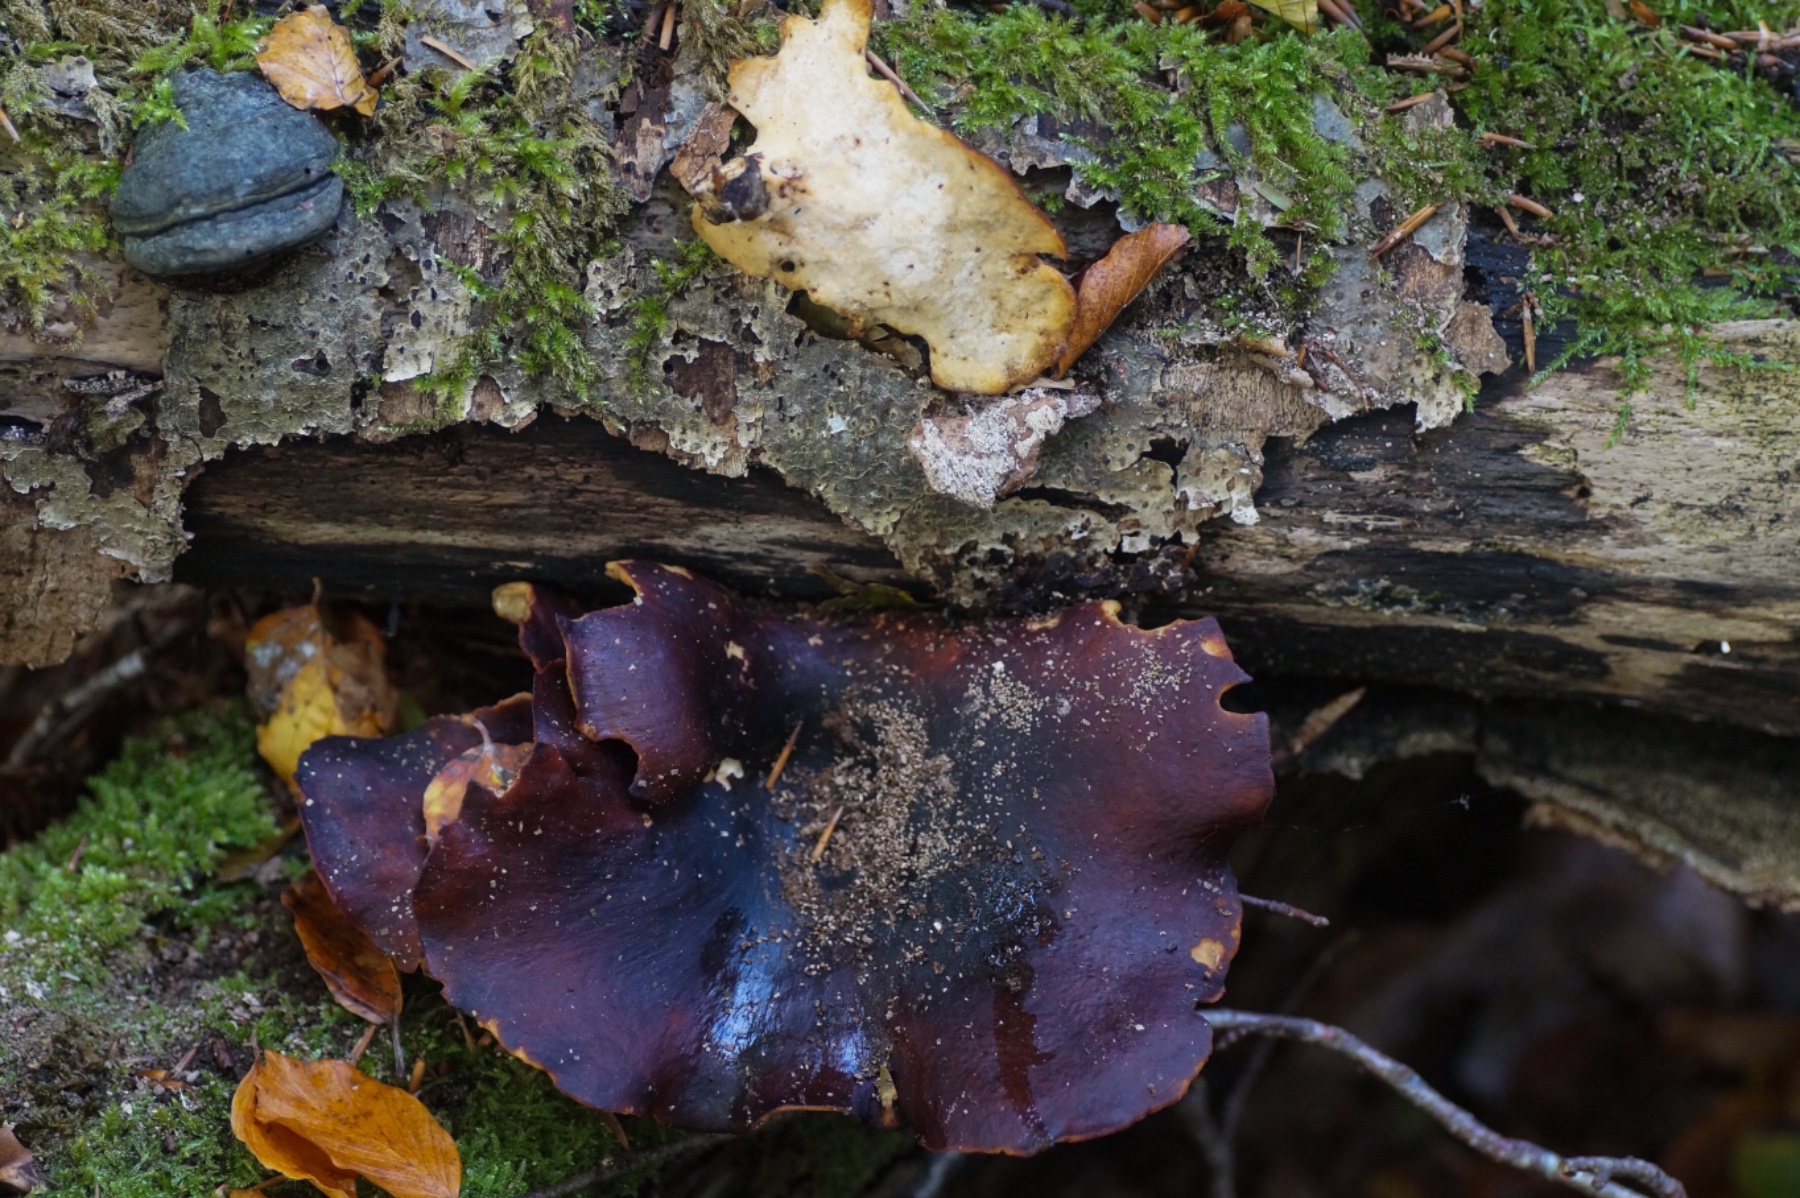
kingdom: Fungi
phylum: Basidiomycota
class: Agaricomycetes
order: Polyporales
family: Polyporaceae
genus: Picipes
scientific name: Picipes badius
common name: kastaniebrun stilkporesvamp
